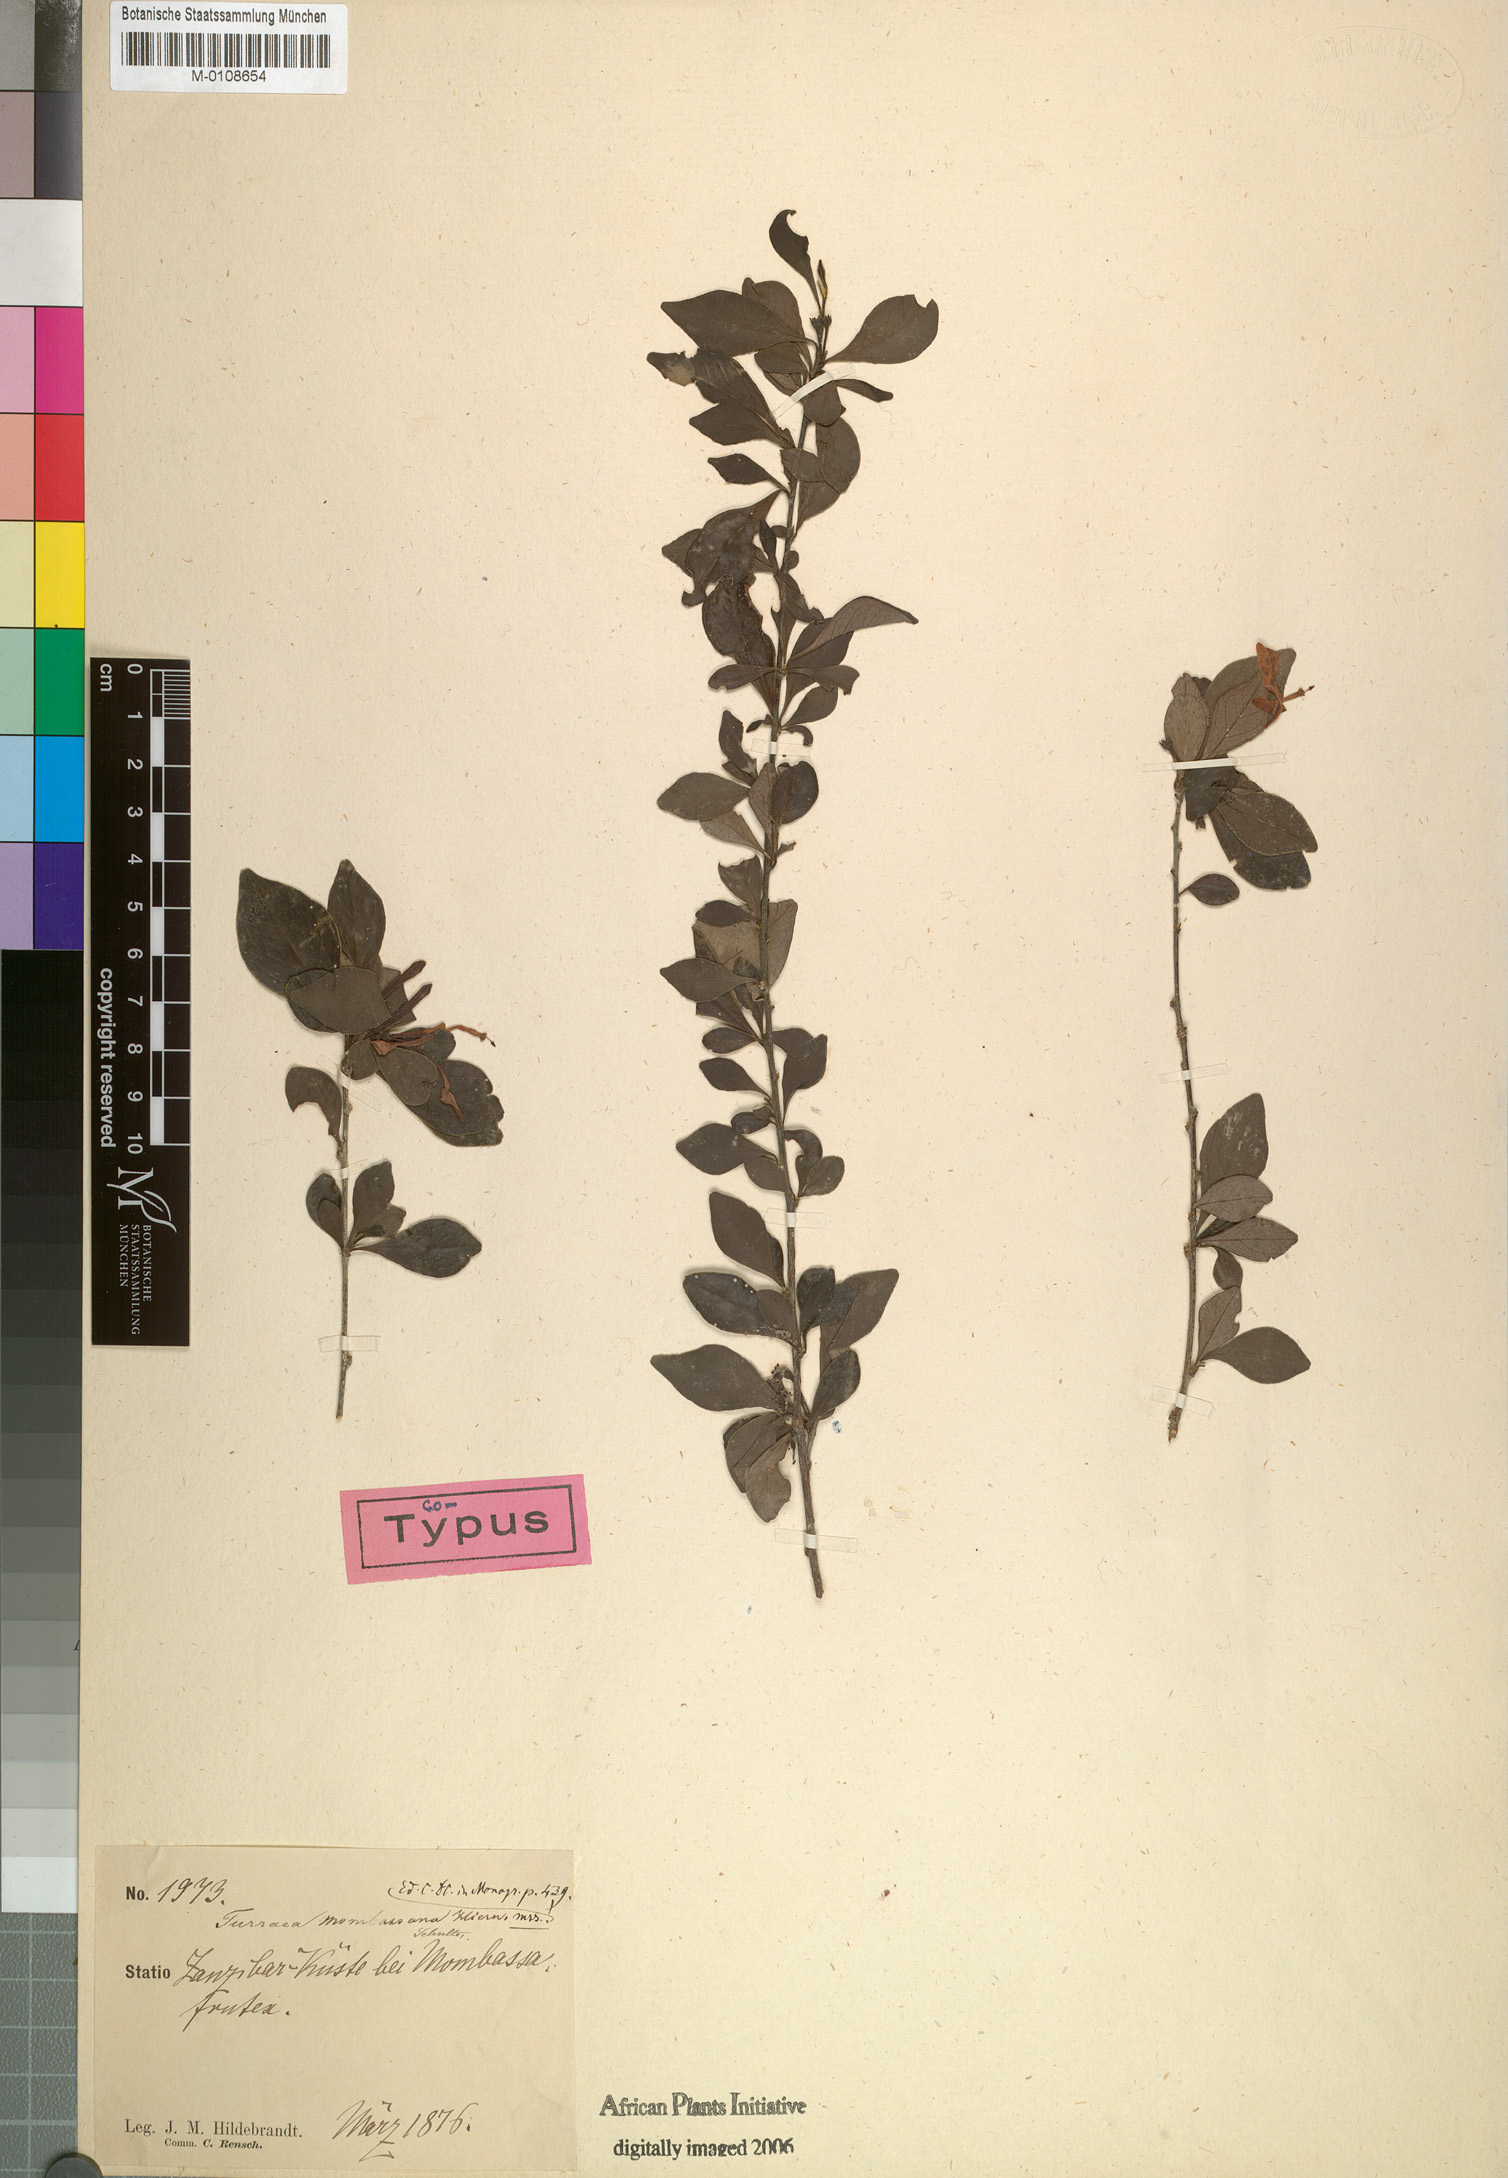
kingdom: Plantae
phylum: Tracheophyta
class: Magnoliopsida
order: Sapindales
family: Meliaceae
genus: Turraea
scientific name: Turraea mombassana
